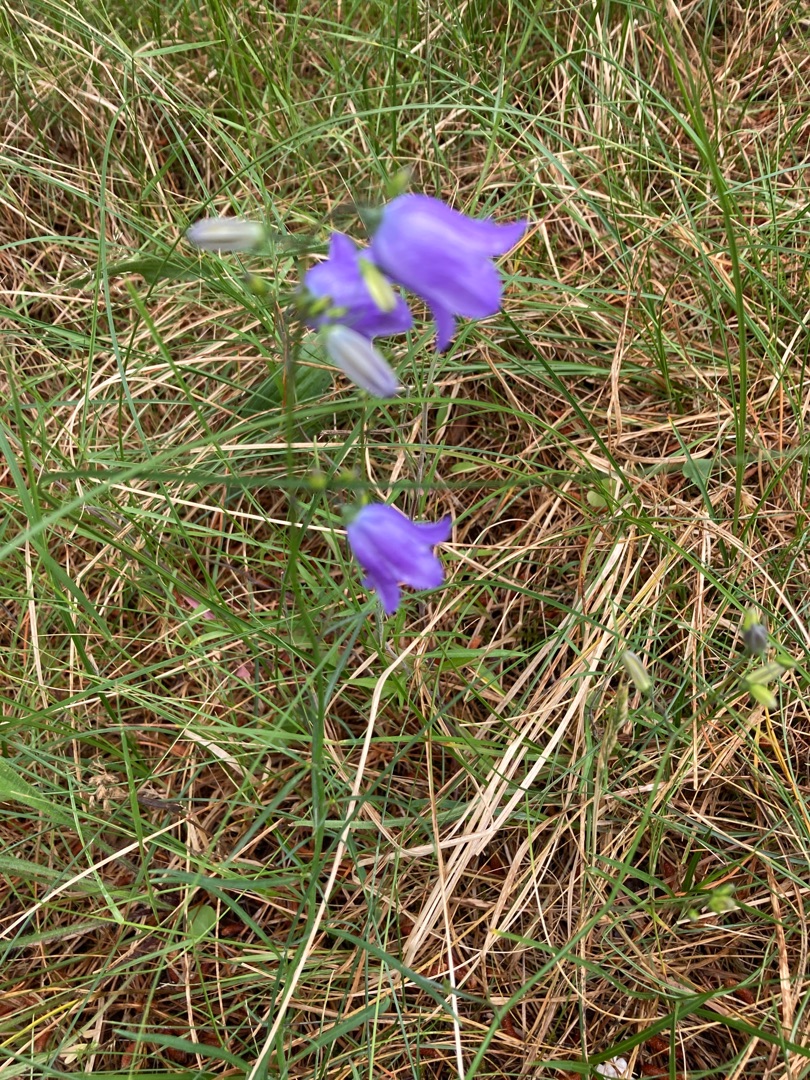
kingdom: Plantae
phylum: Tracheophyta
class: Magnoliopsida
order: Asterales
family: Campanulaceae
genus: Campanula
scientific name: Campanula rotundifolia
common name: Liden klokke
